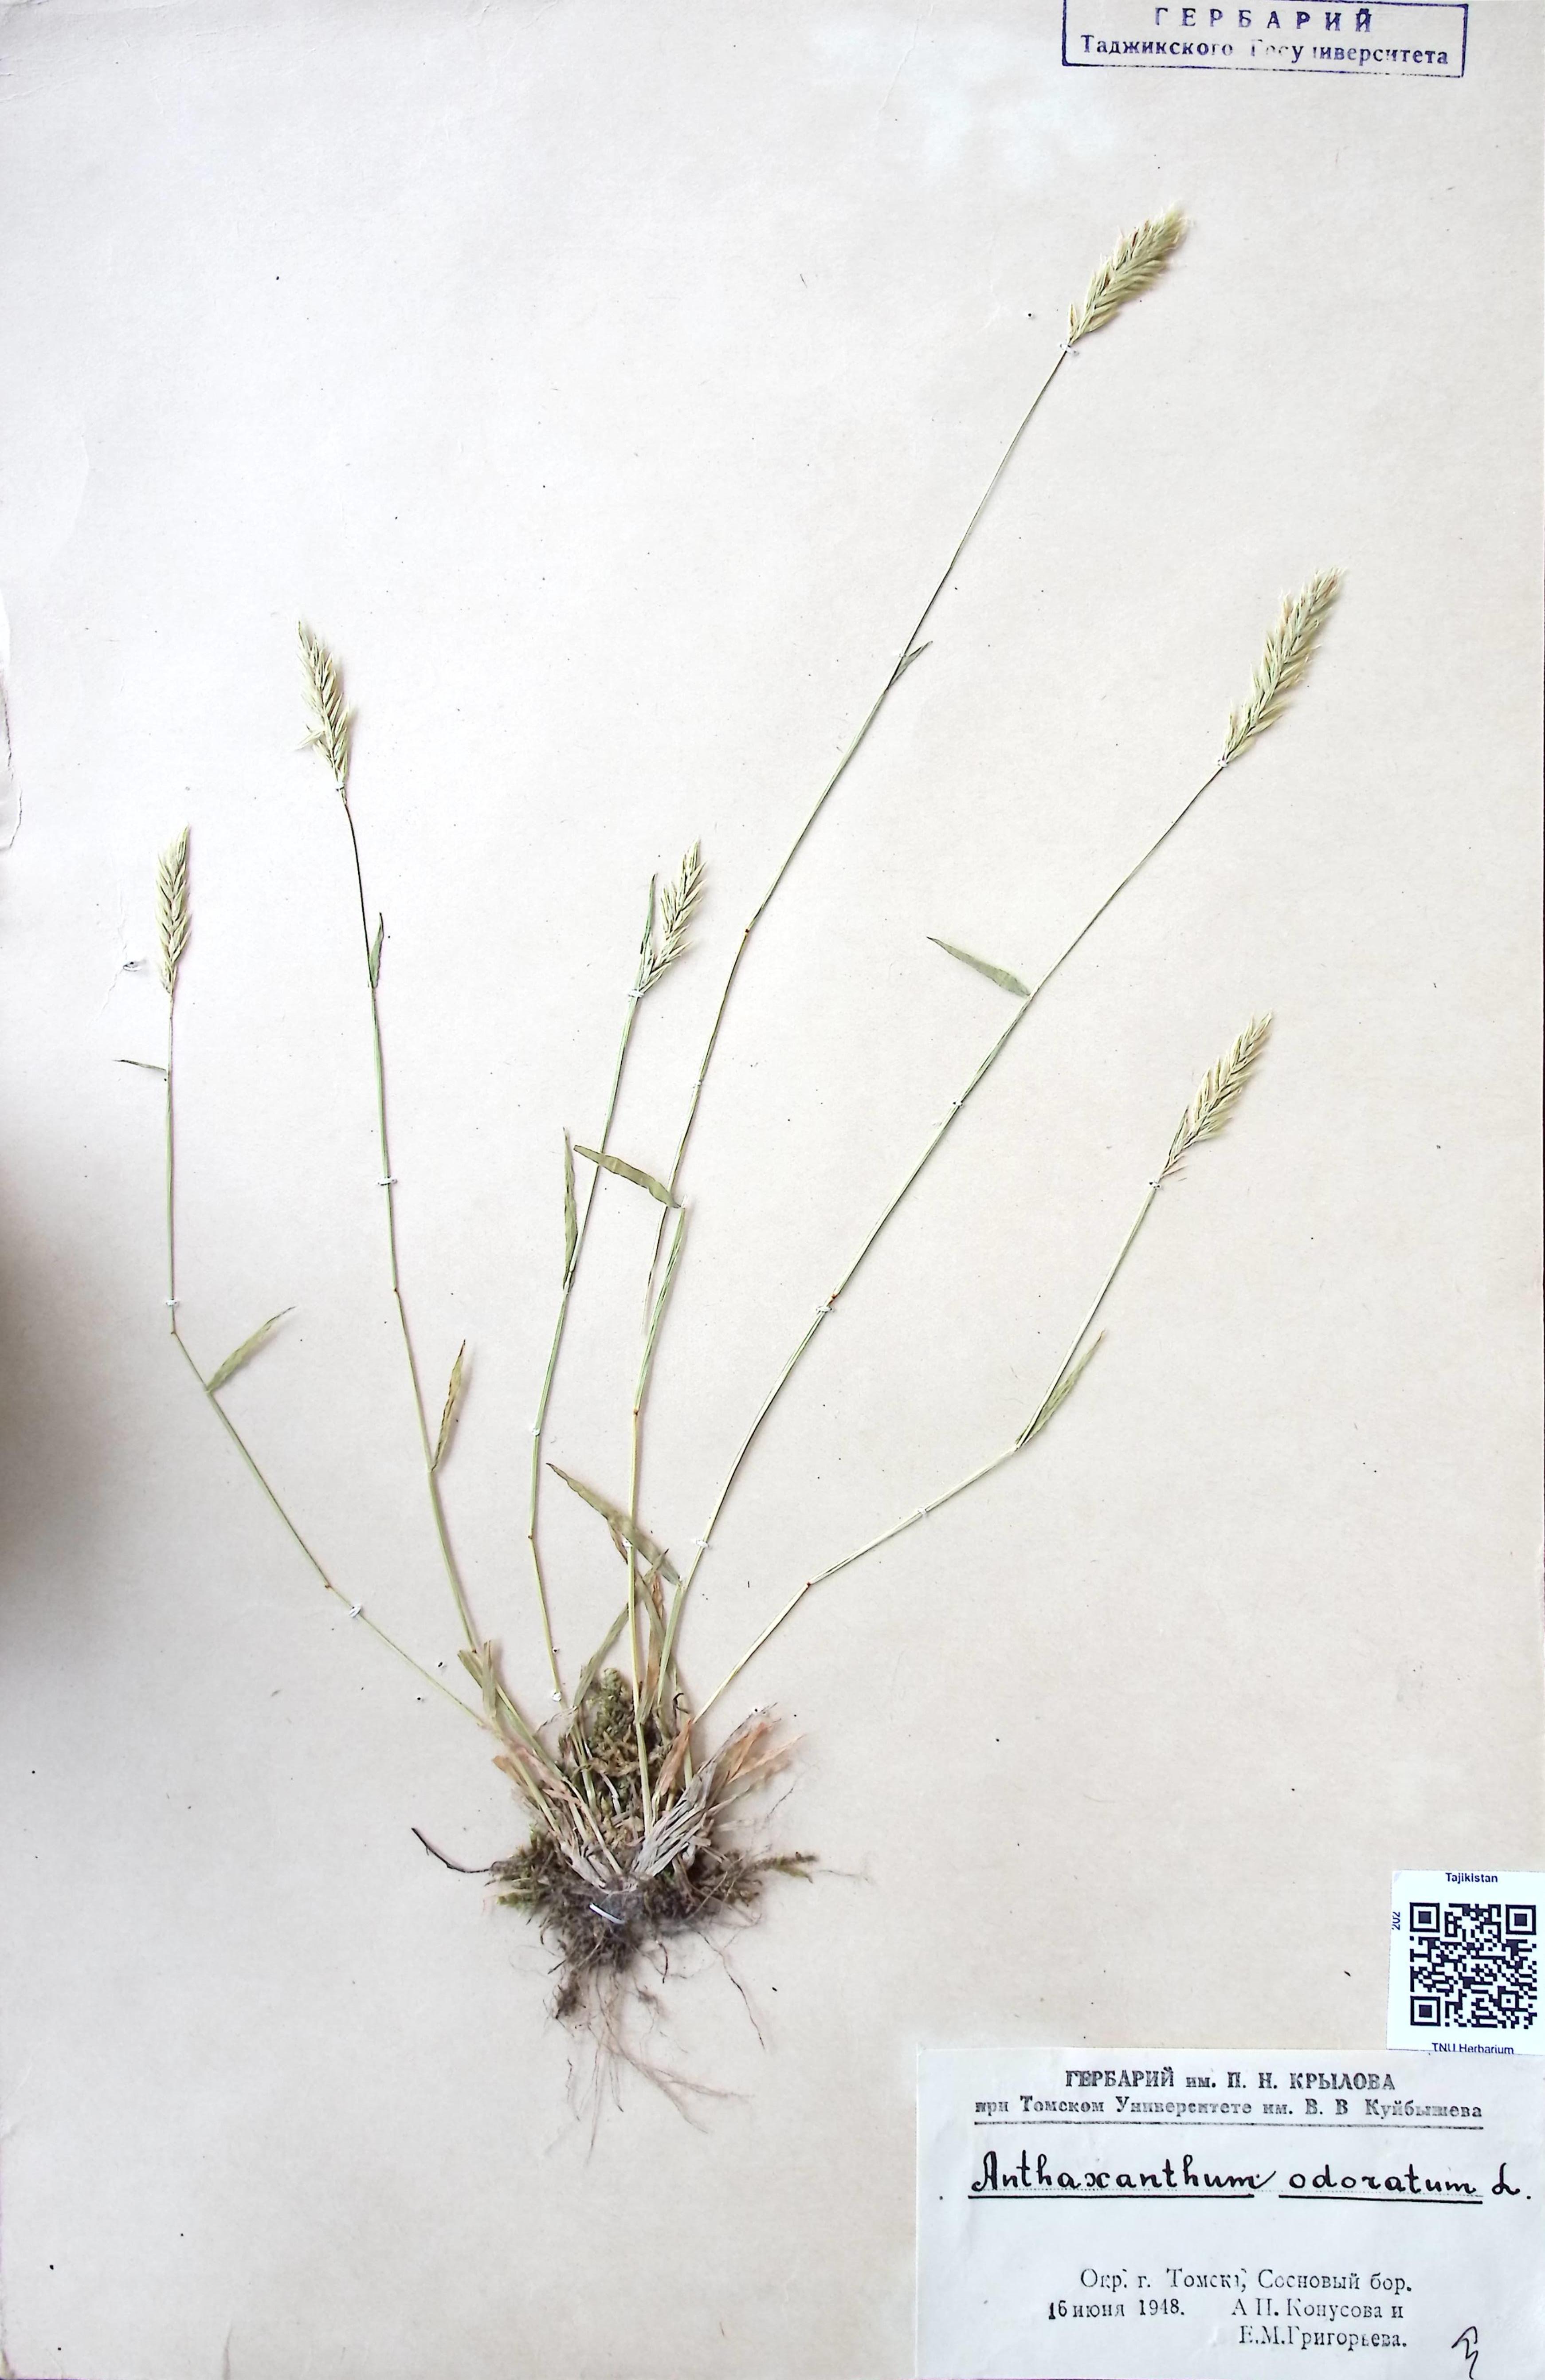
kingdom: Plantae
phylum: Tracheophyta
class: Liliopsida
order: Poales
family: Poaceae
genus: Anthoxanthum
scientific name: Anthoxanthum odoratum
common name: Sweet vernalgrass
